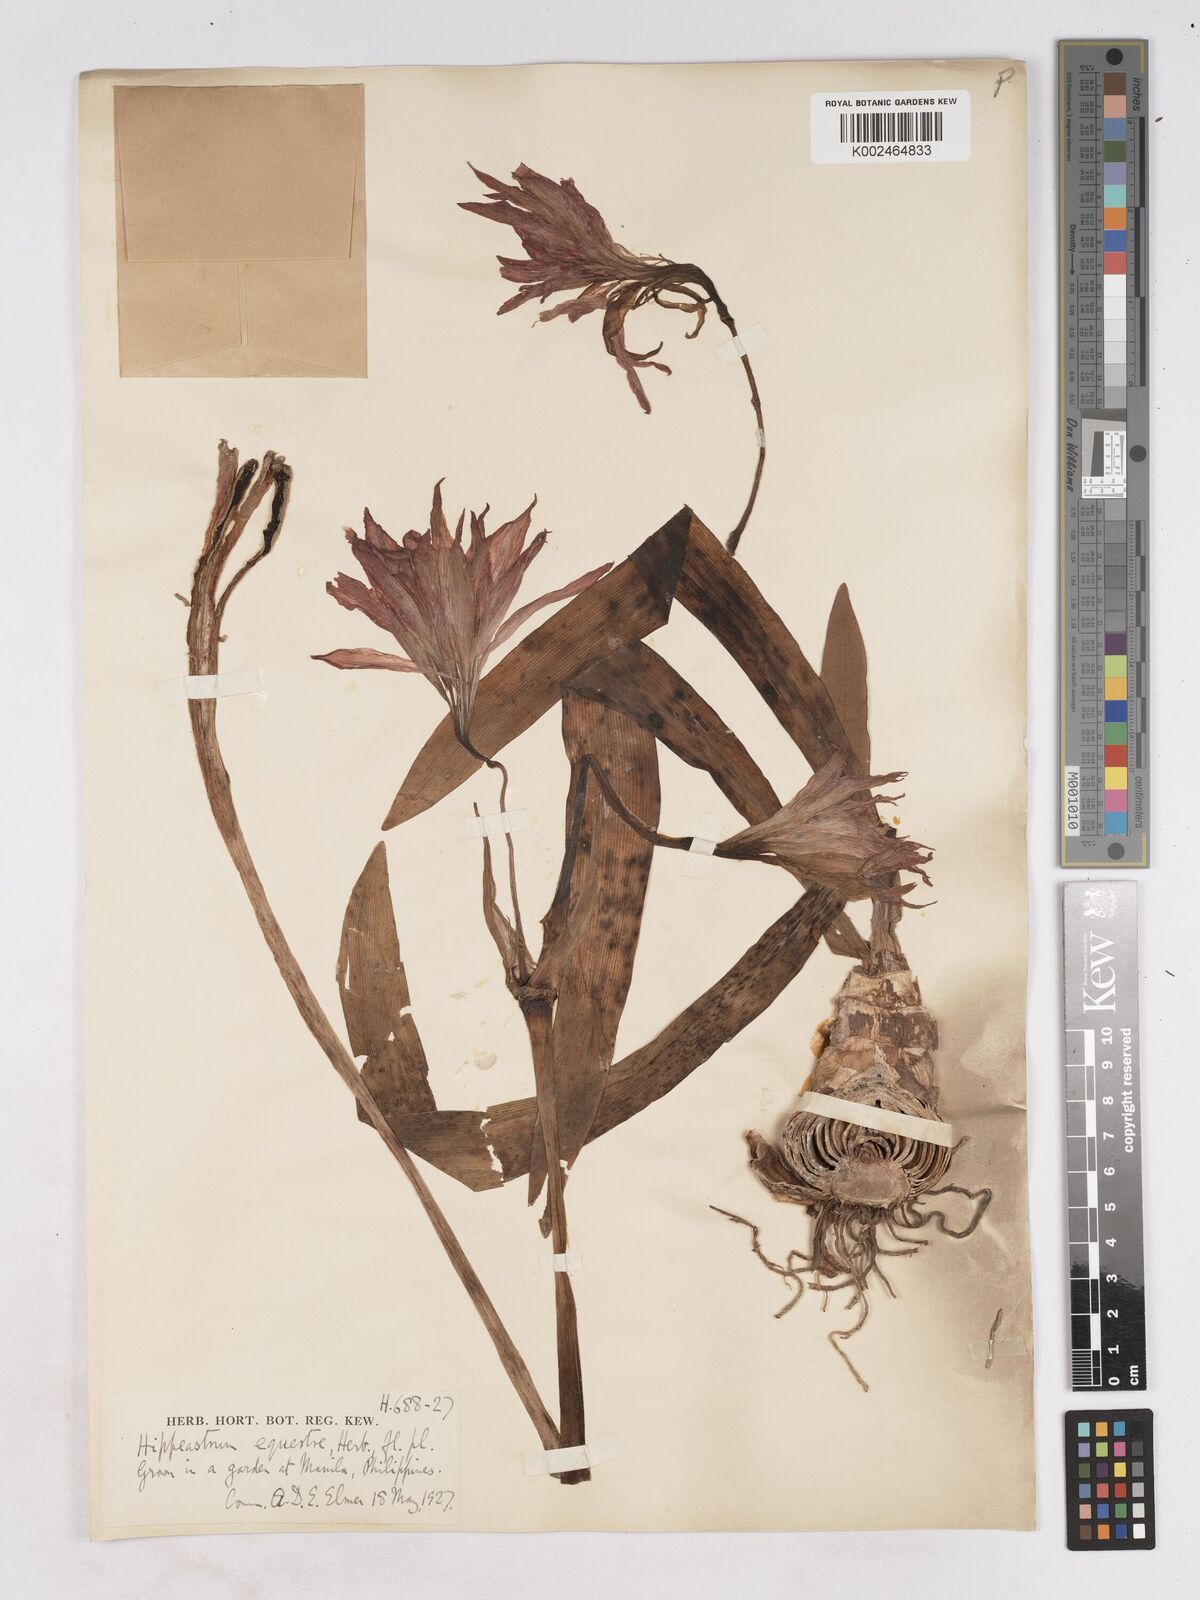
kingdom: Plantae
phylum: Tracheophyta
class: Liliopsida
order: Asparagales
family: Amaryllidaceae
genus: Hippeastrum
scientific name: Hippeastrum
